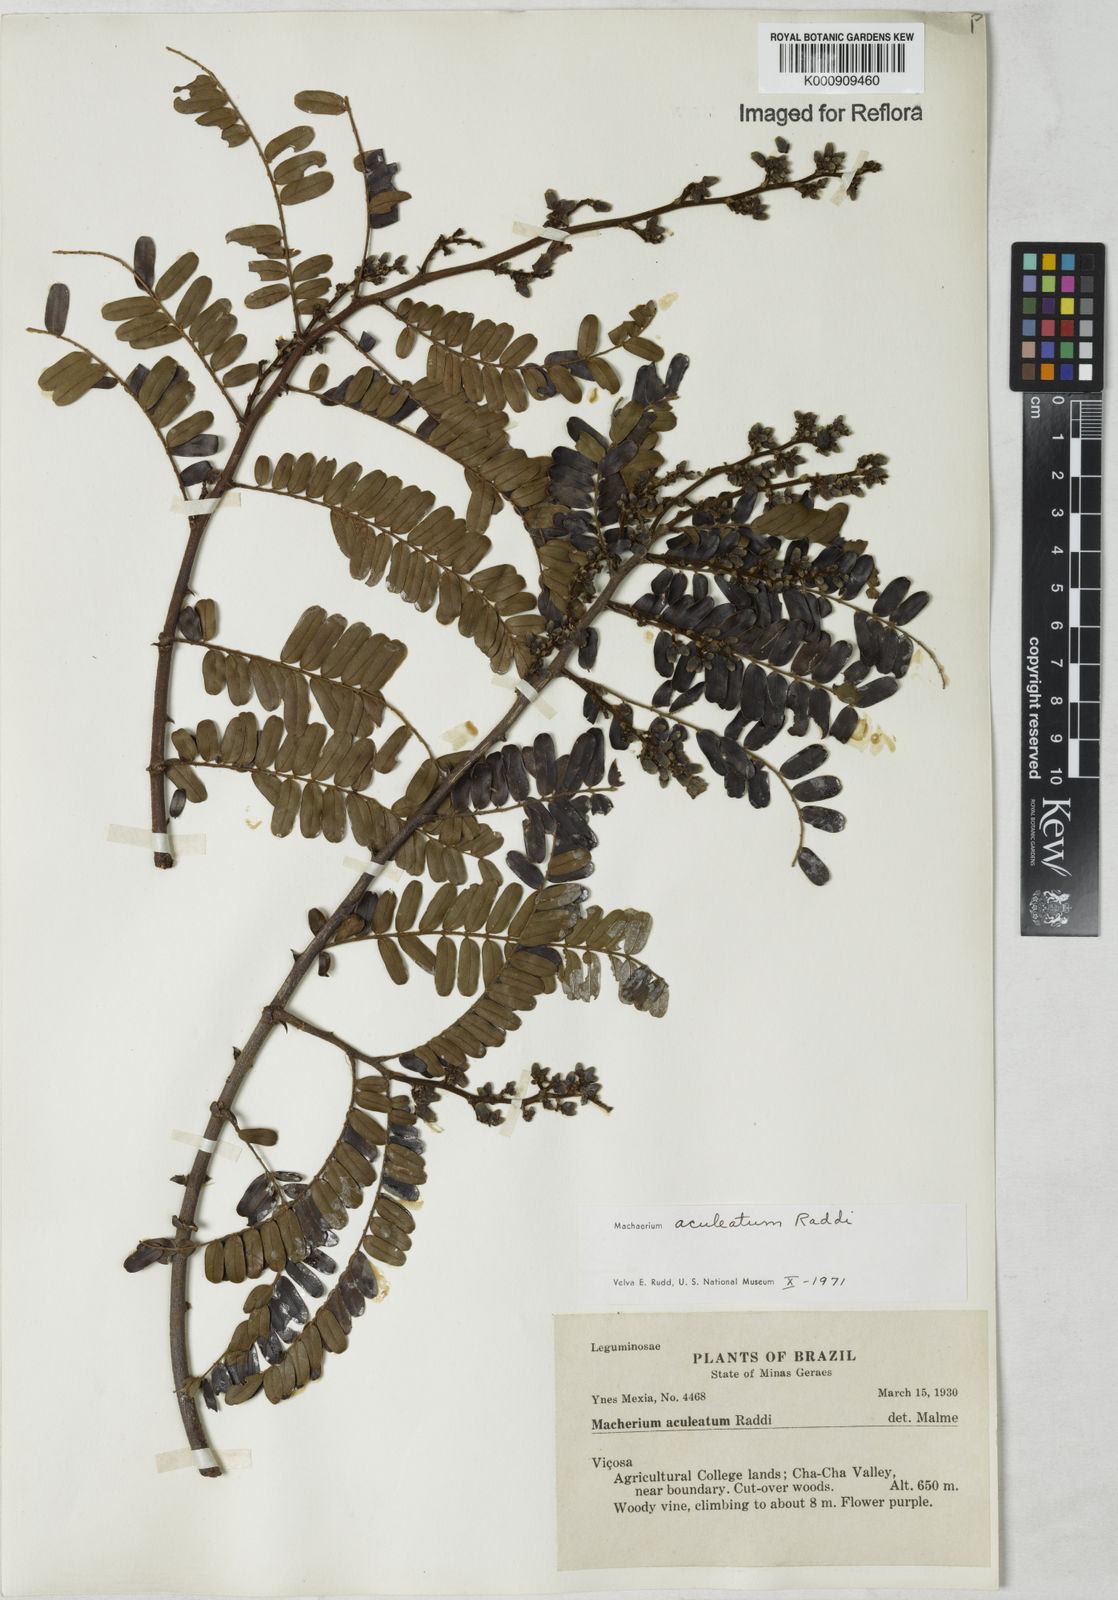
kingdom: Plantae
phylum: Tracheophyta
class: Magnoliopsida
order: Fabales
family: Fabaceae
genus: Machaerium
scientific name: Machaerium aculeatum
